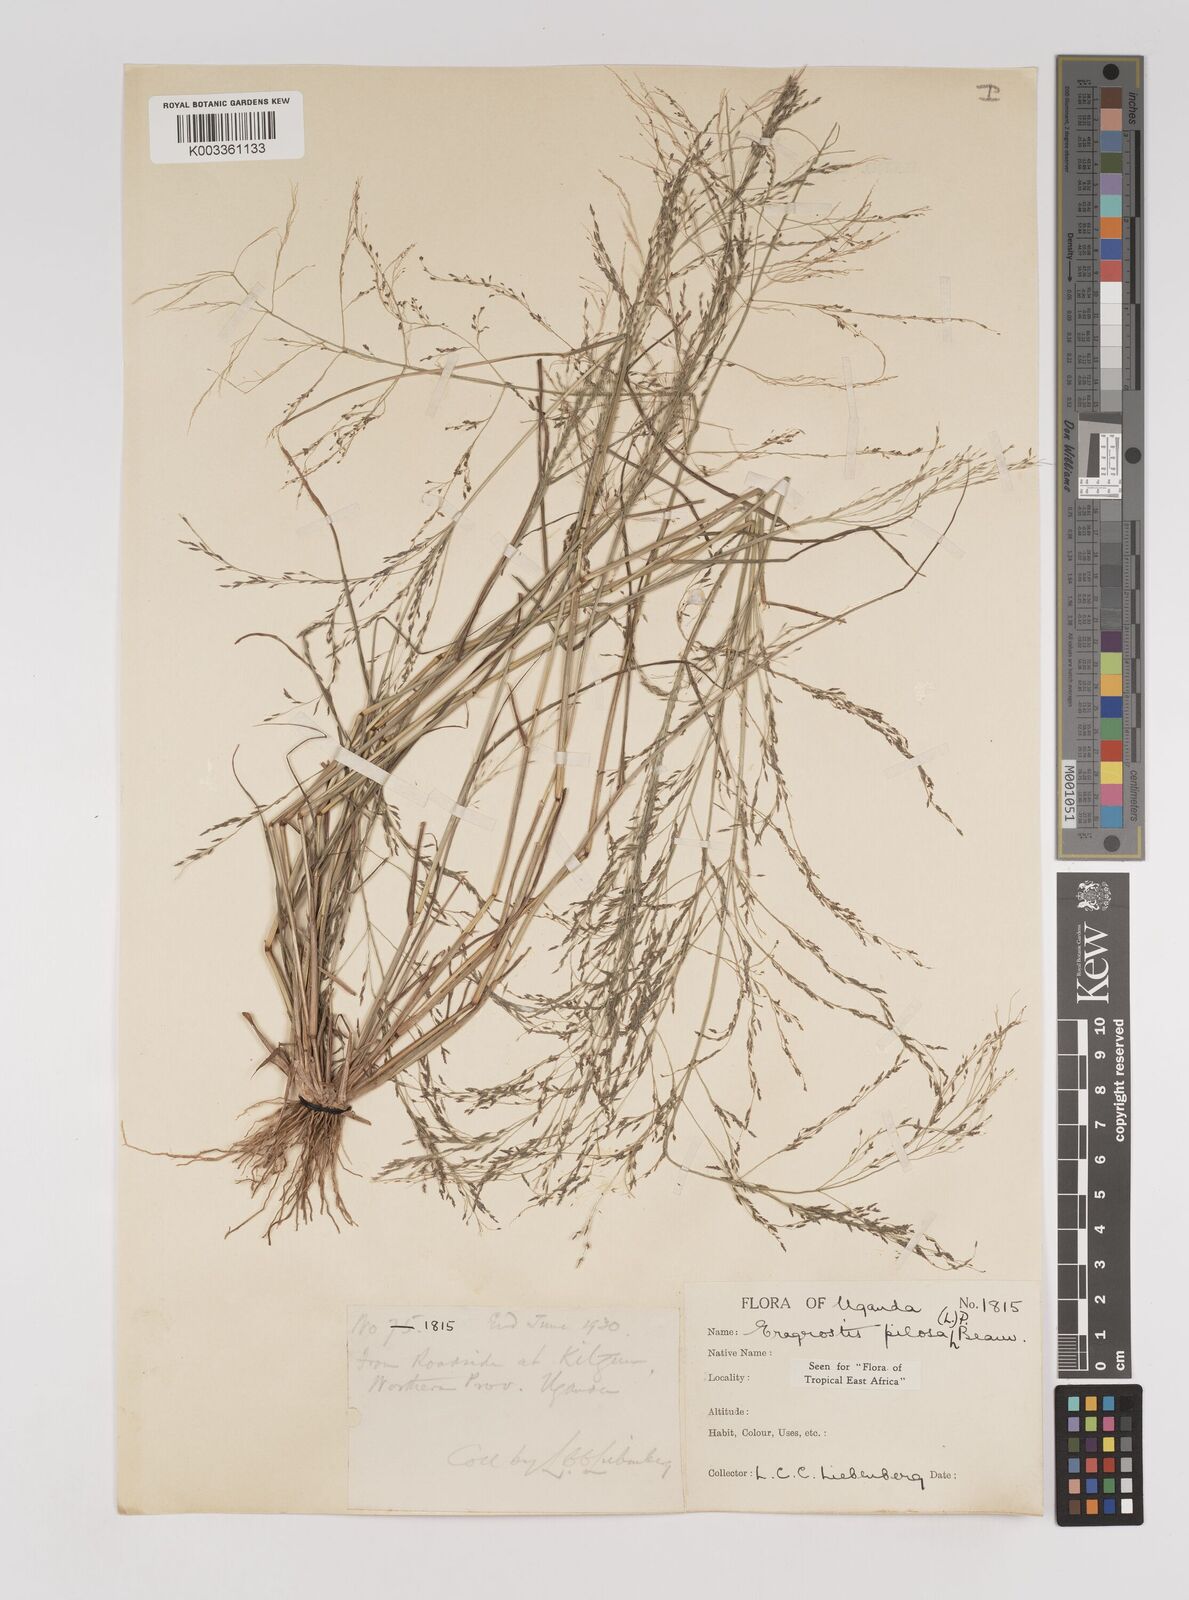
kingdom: Plantae
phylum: Tracheophyta
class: Liliopsida
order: Poales
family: Poaceae
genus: Eragrostis
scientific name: Eragrostis pilosa
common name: Indian lovegrass
